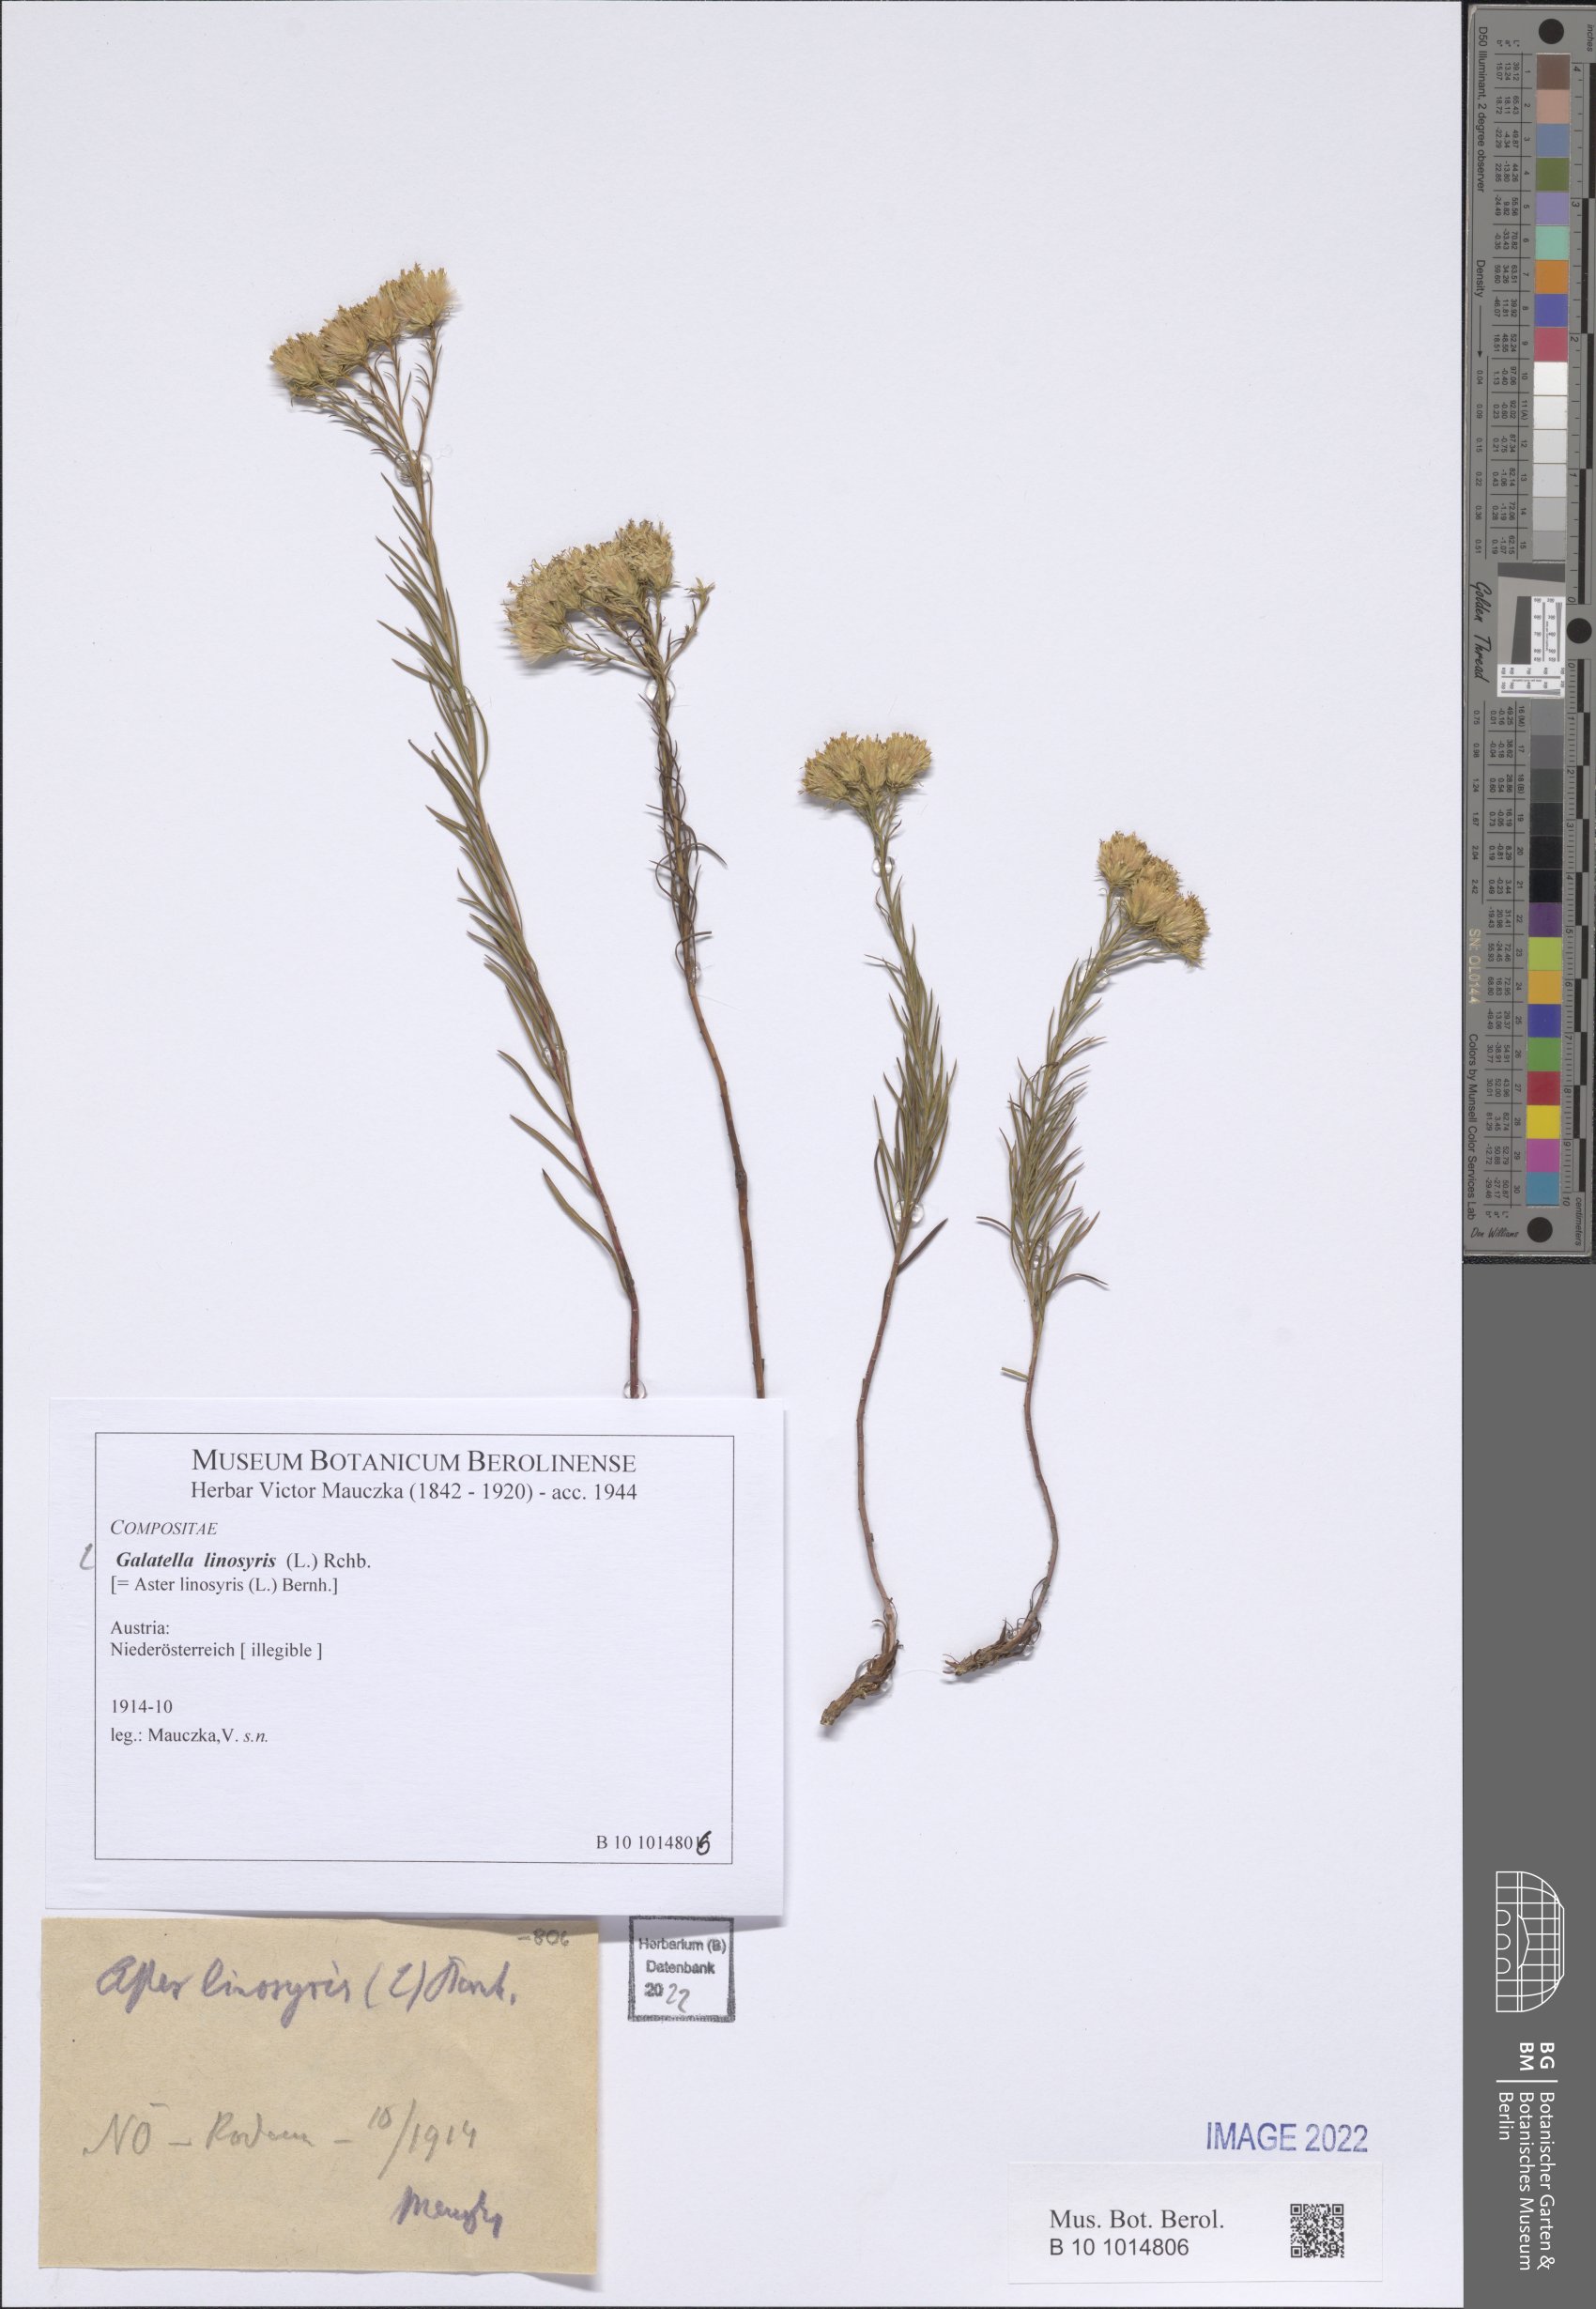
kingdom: Plantae
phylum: Tracheophyta
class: Magnoliopsida
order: Asterales
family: Asteraceae
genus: Galatella
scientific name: Galatella linosyris
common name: Goldilocks aster
